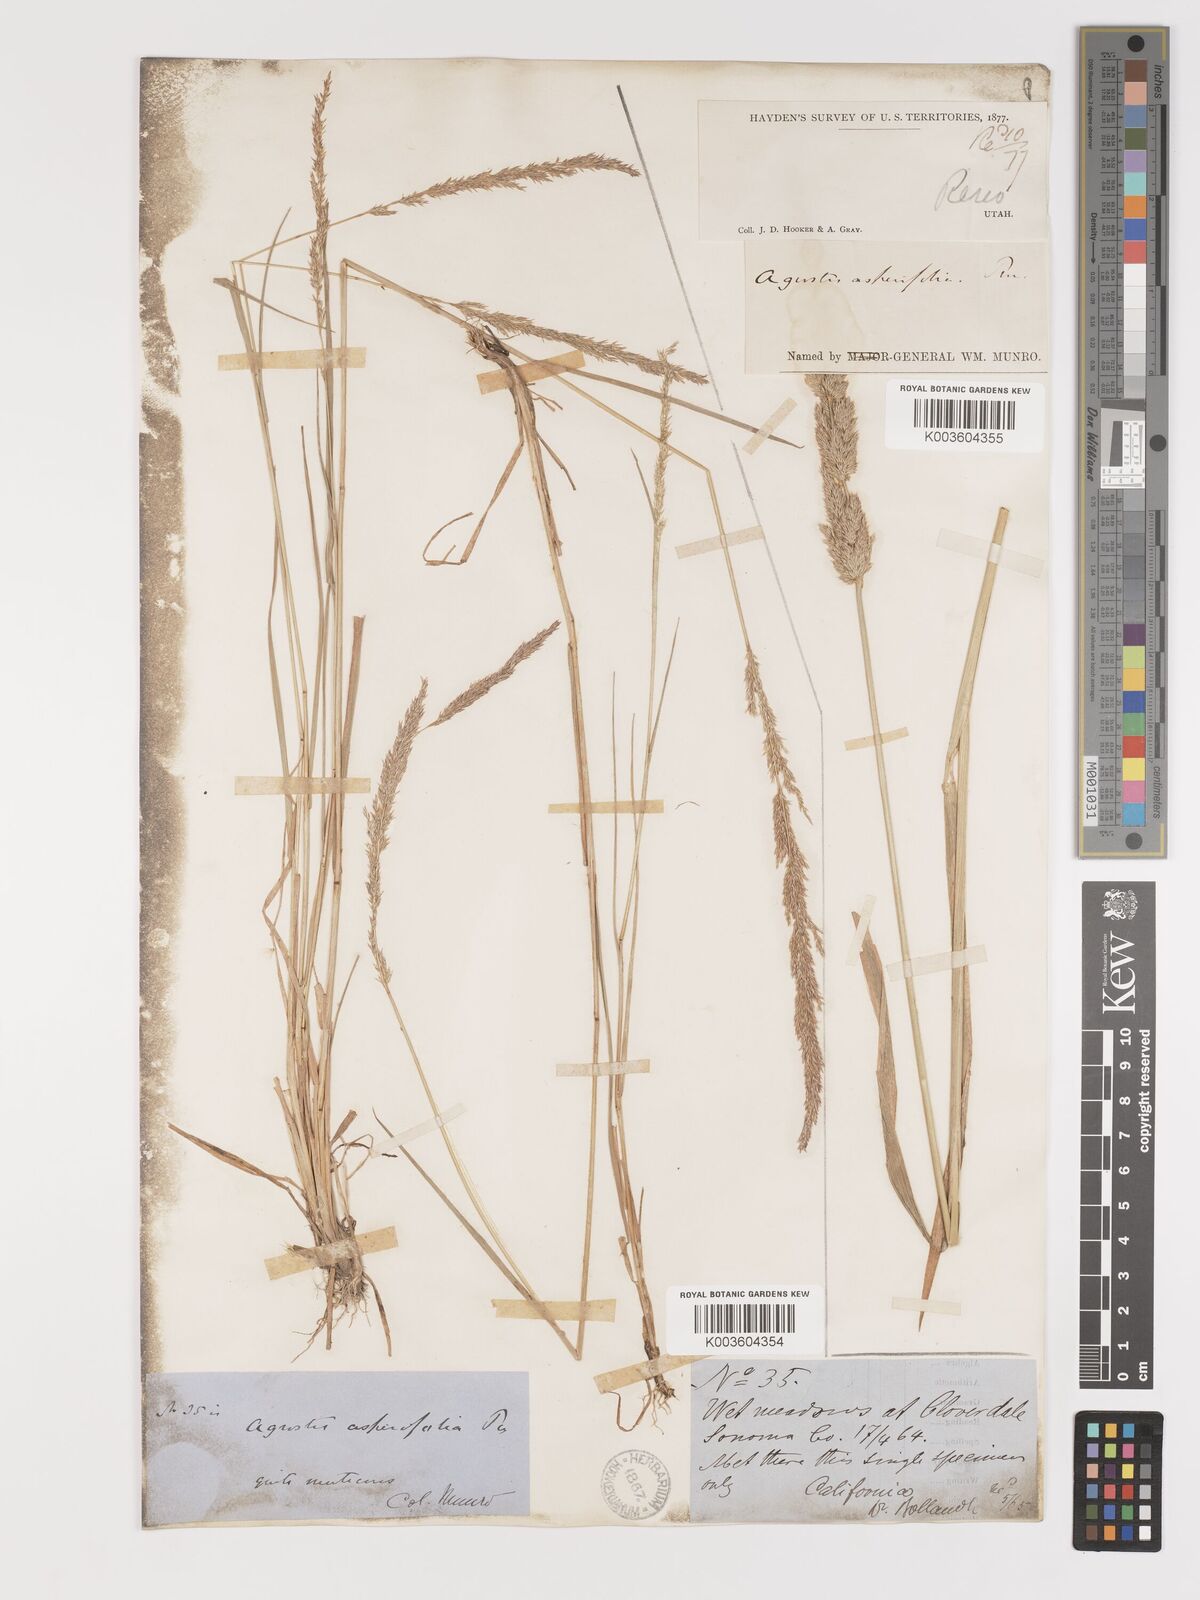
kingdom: Plantae
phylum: Tracheophyta
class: Liliopsida
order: Poales
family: Poaceae
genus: Agrostis
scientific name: Agrostis exarata
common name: Spike bent
